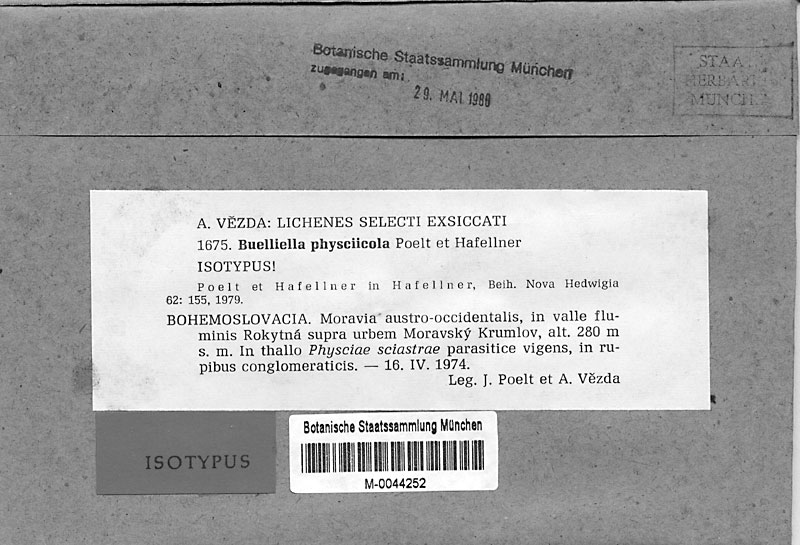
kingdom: Fungi
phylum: Ascomycota
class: Lecanoromycetes
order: Caliciales
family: Physciaceae
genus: Phaeophyscia
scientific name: Phaeophyscia sciastra
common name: Dark shadow lichen
